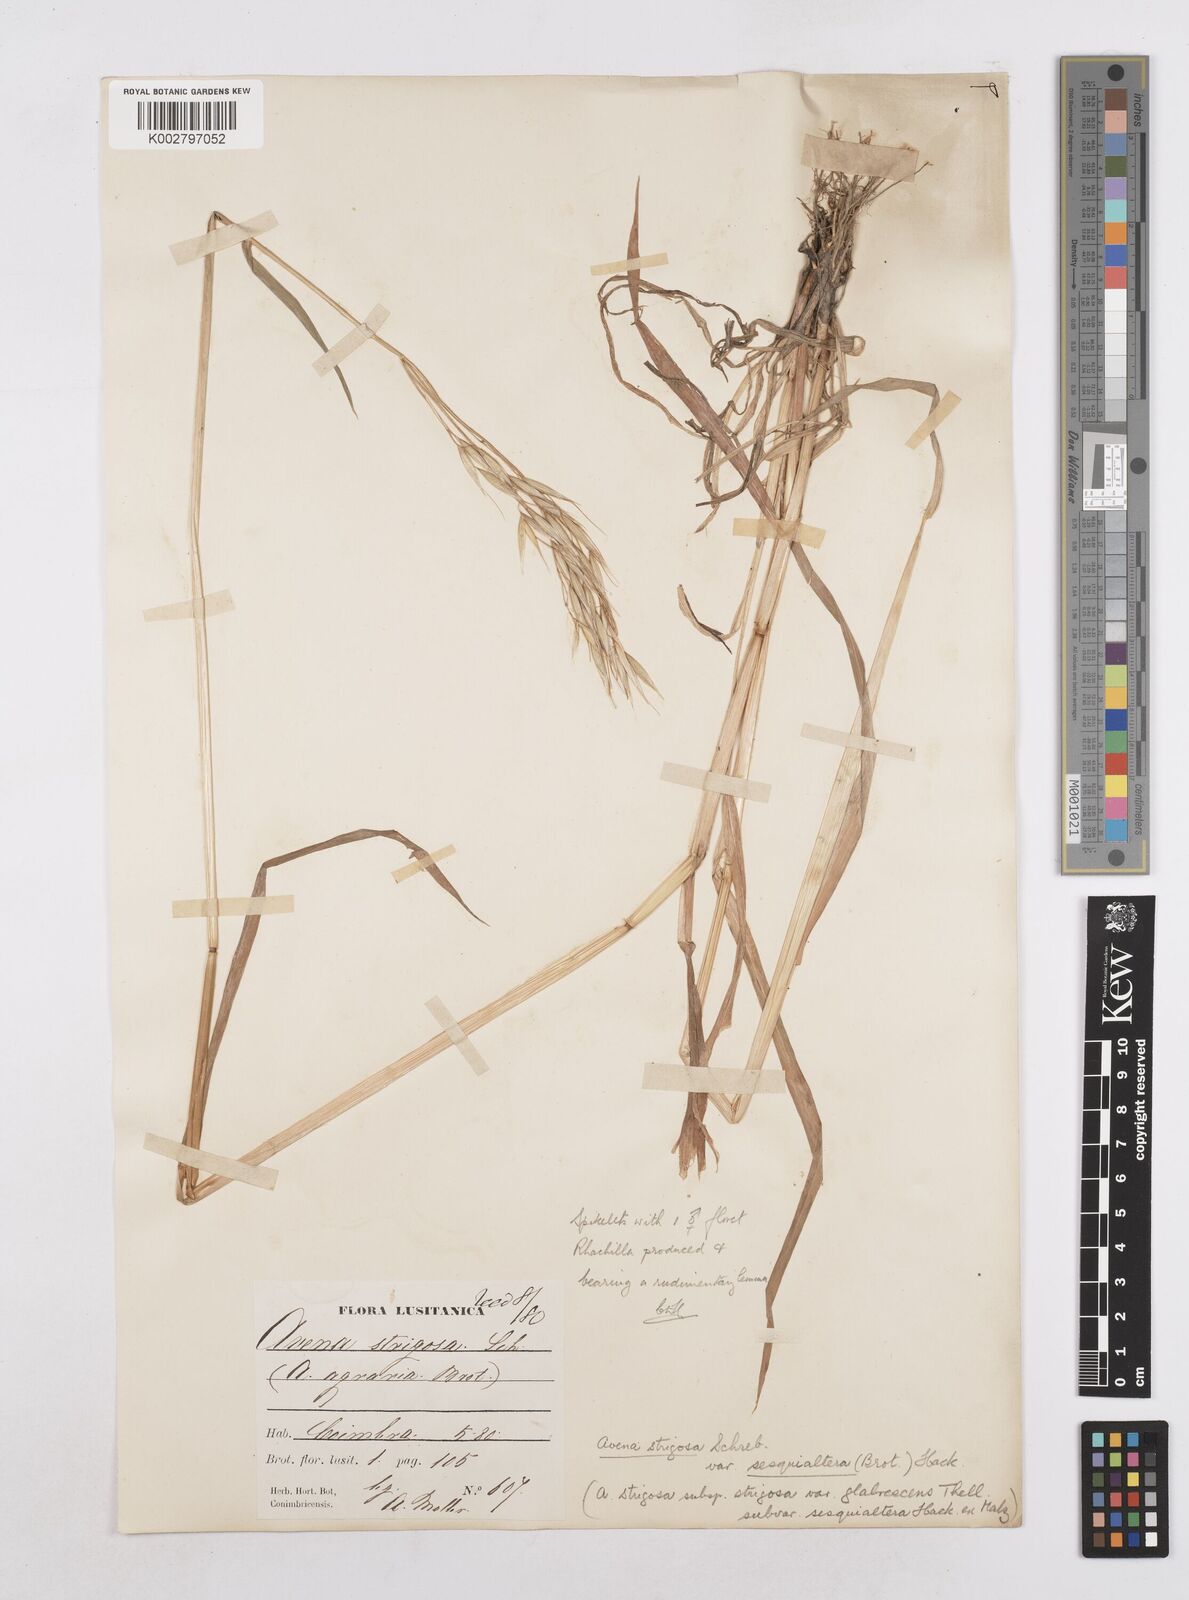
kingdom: Plantae
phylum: Tracheophyta
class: Liliopsida
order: Poales
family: Poaceae
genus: Avena
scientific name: Avena strigosa
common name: Bristle oat
